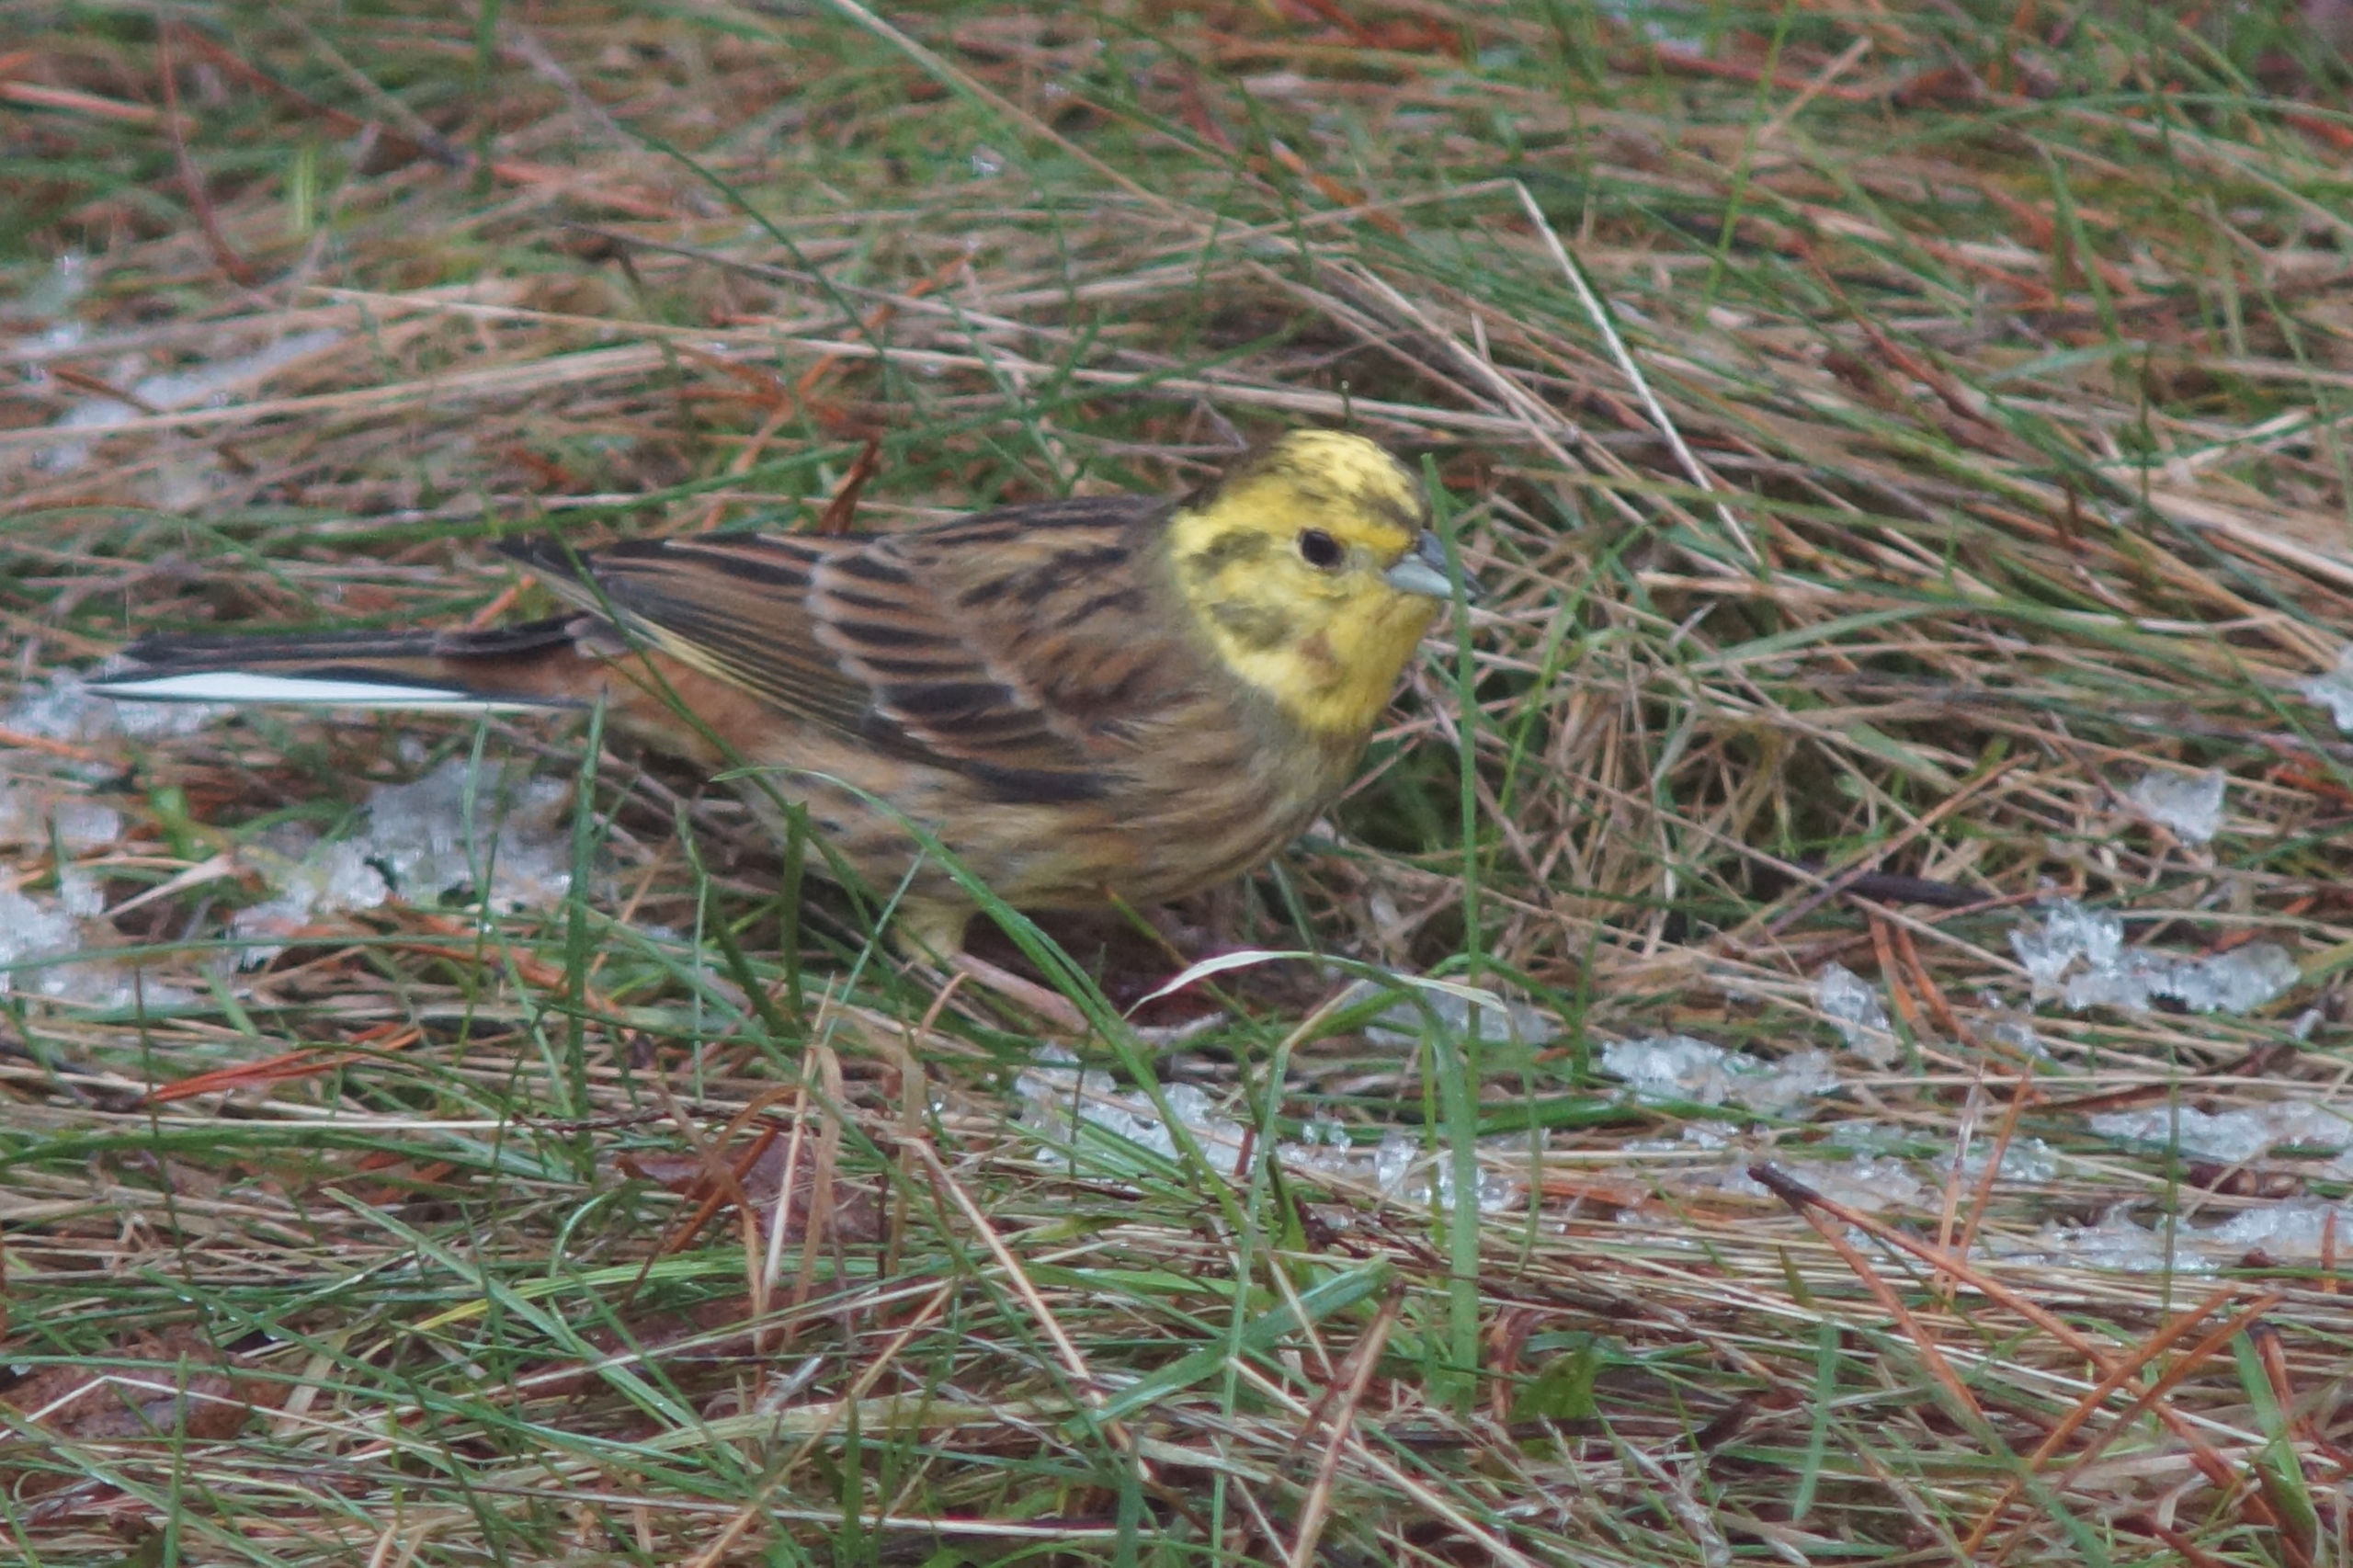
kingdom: Animalia
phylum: Chordata
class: Aves
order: Passeriformes
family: Emberizidae
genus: Emberiza
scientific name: Emberiza citrinella
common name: Gulspurv
